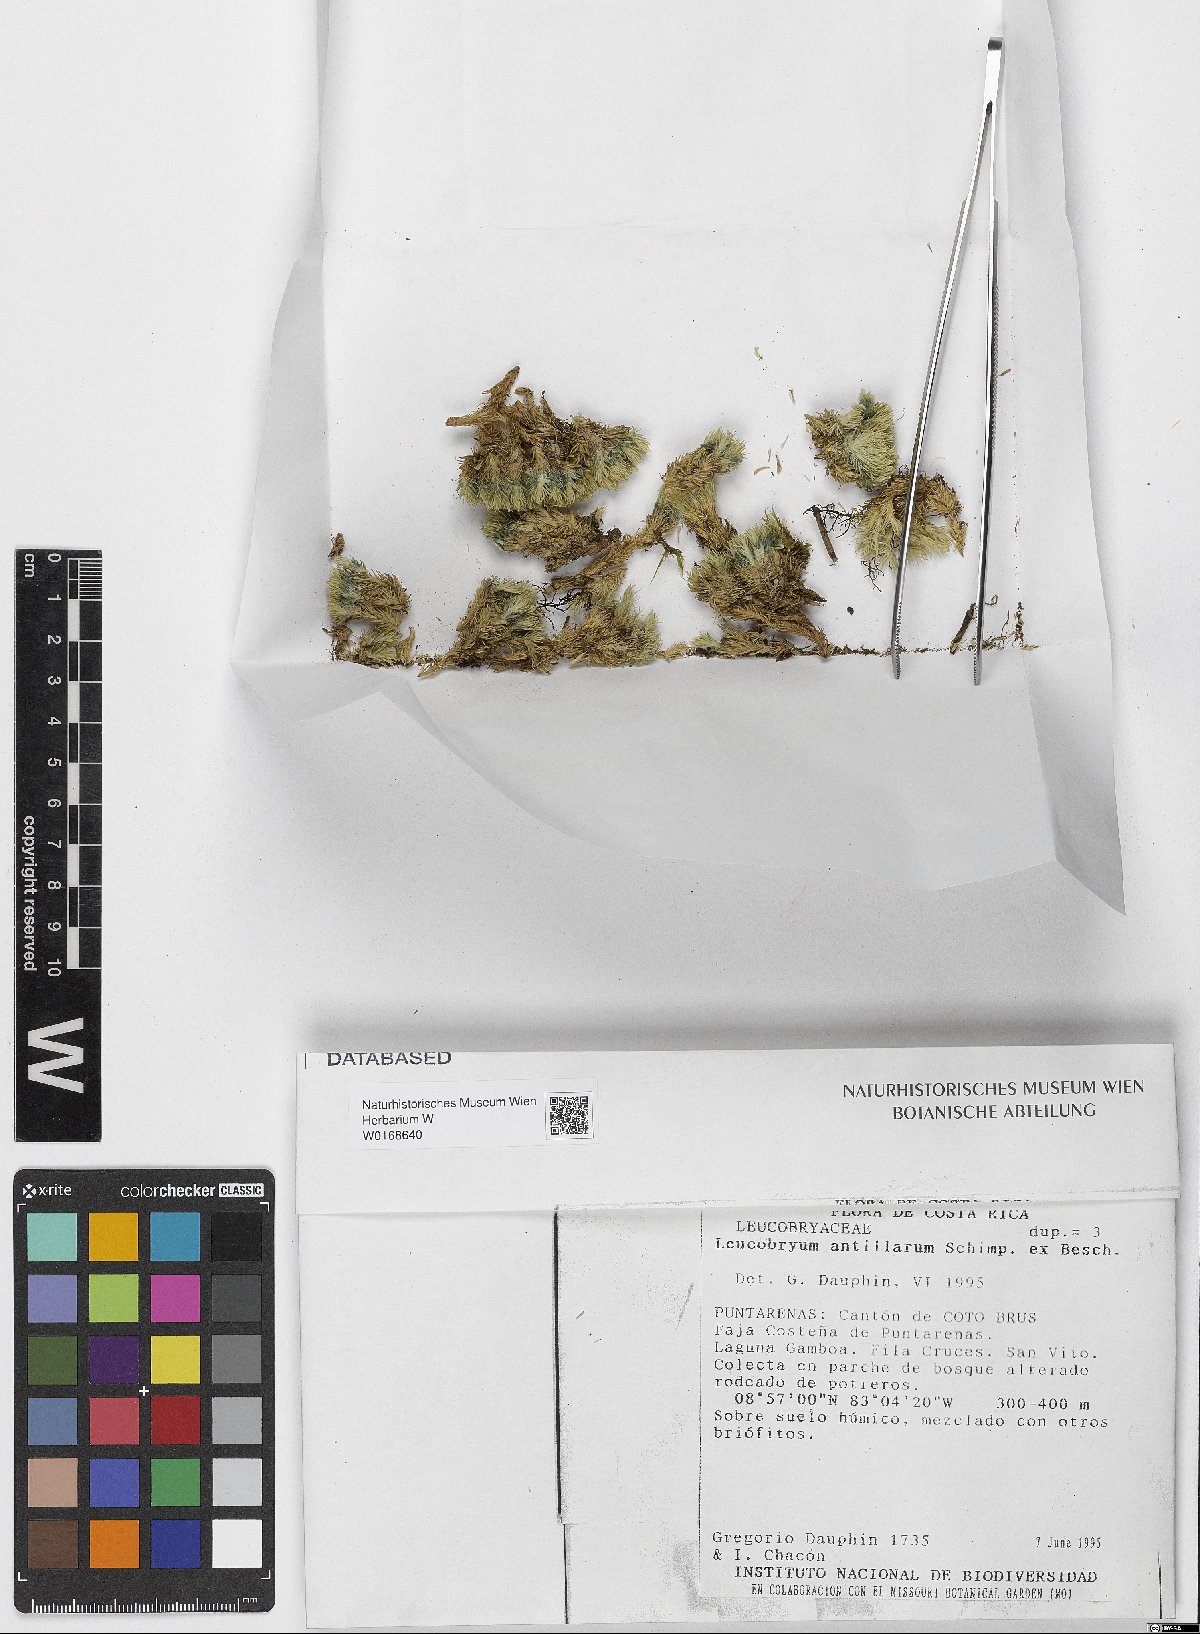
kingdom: Plantae
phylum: Bryophyta
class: Bryopsida
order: Dicranales
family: Leucobryaceae
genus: Leucobryum
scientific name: Leucobryum antillarum
